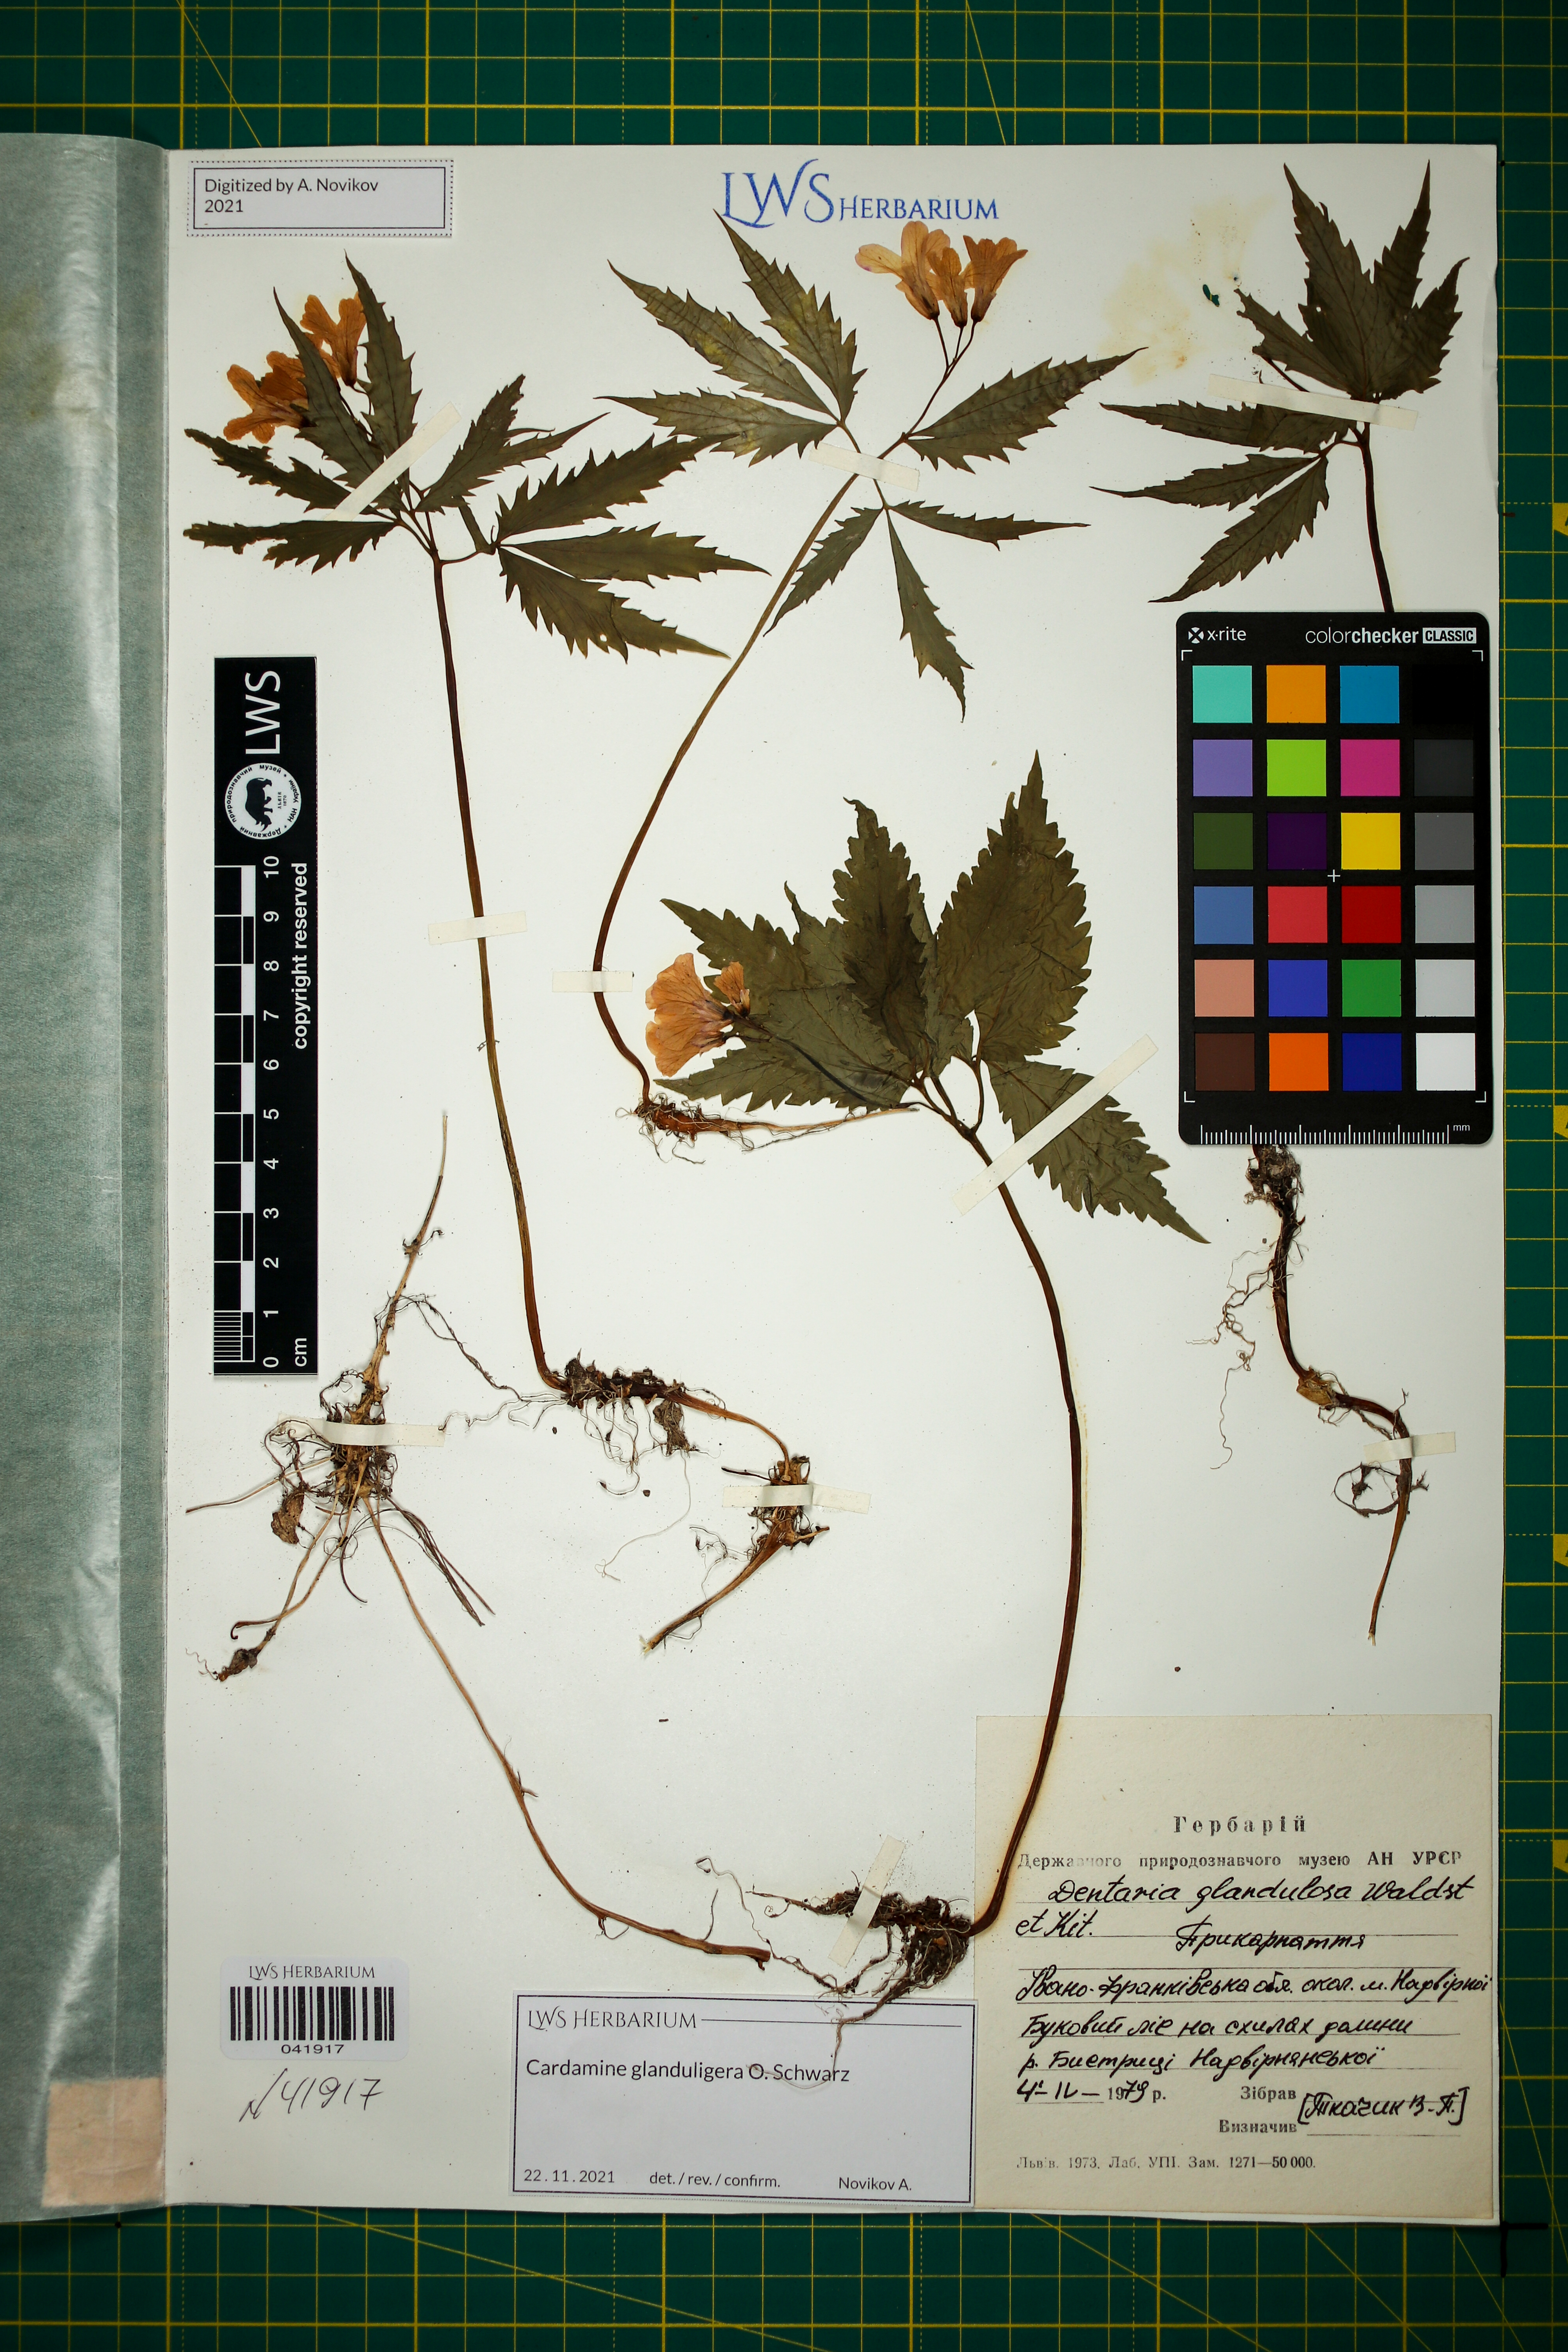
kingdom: Plantae
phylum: Tracheophyta
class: Magnoliopsida
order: Brassicales
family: Brassicaceae
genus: Cardamine
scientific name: Cardamine glanduligera
